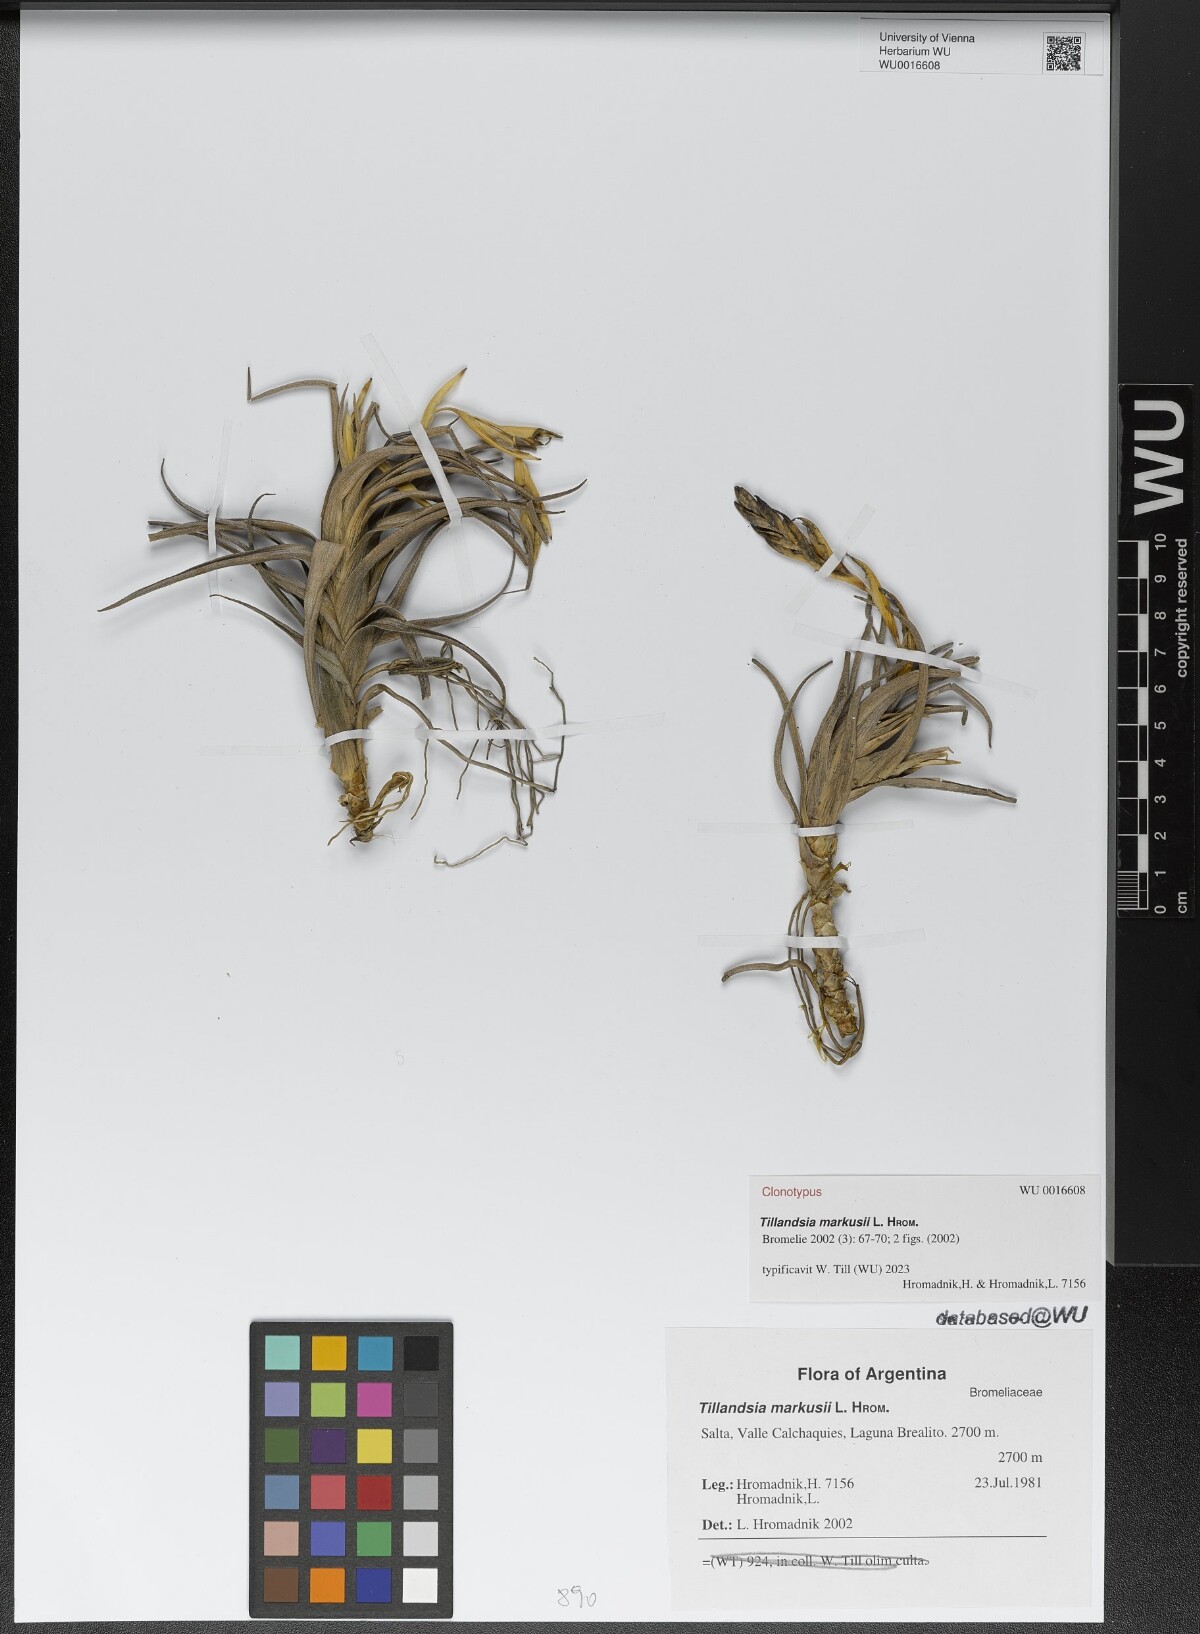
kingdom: Plantae
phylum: Tracheophyta
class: Liliopsida
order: Poales
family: Bromeliaceae
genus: Tillandsia
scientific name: Tillandsia markusii
